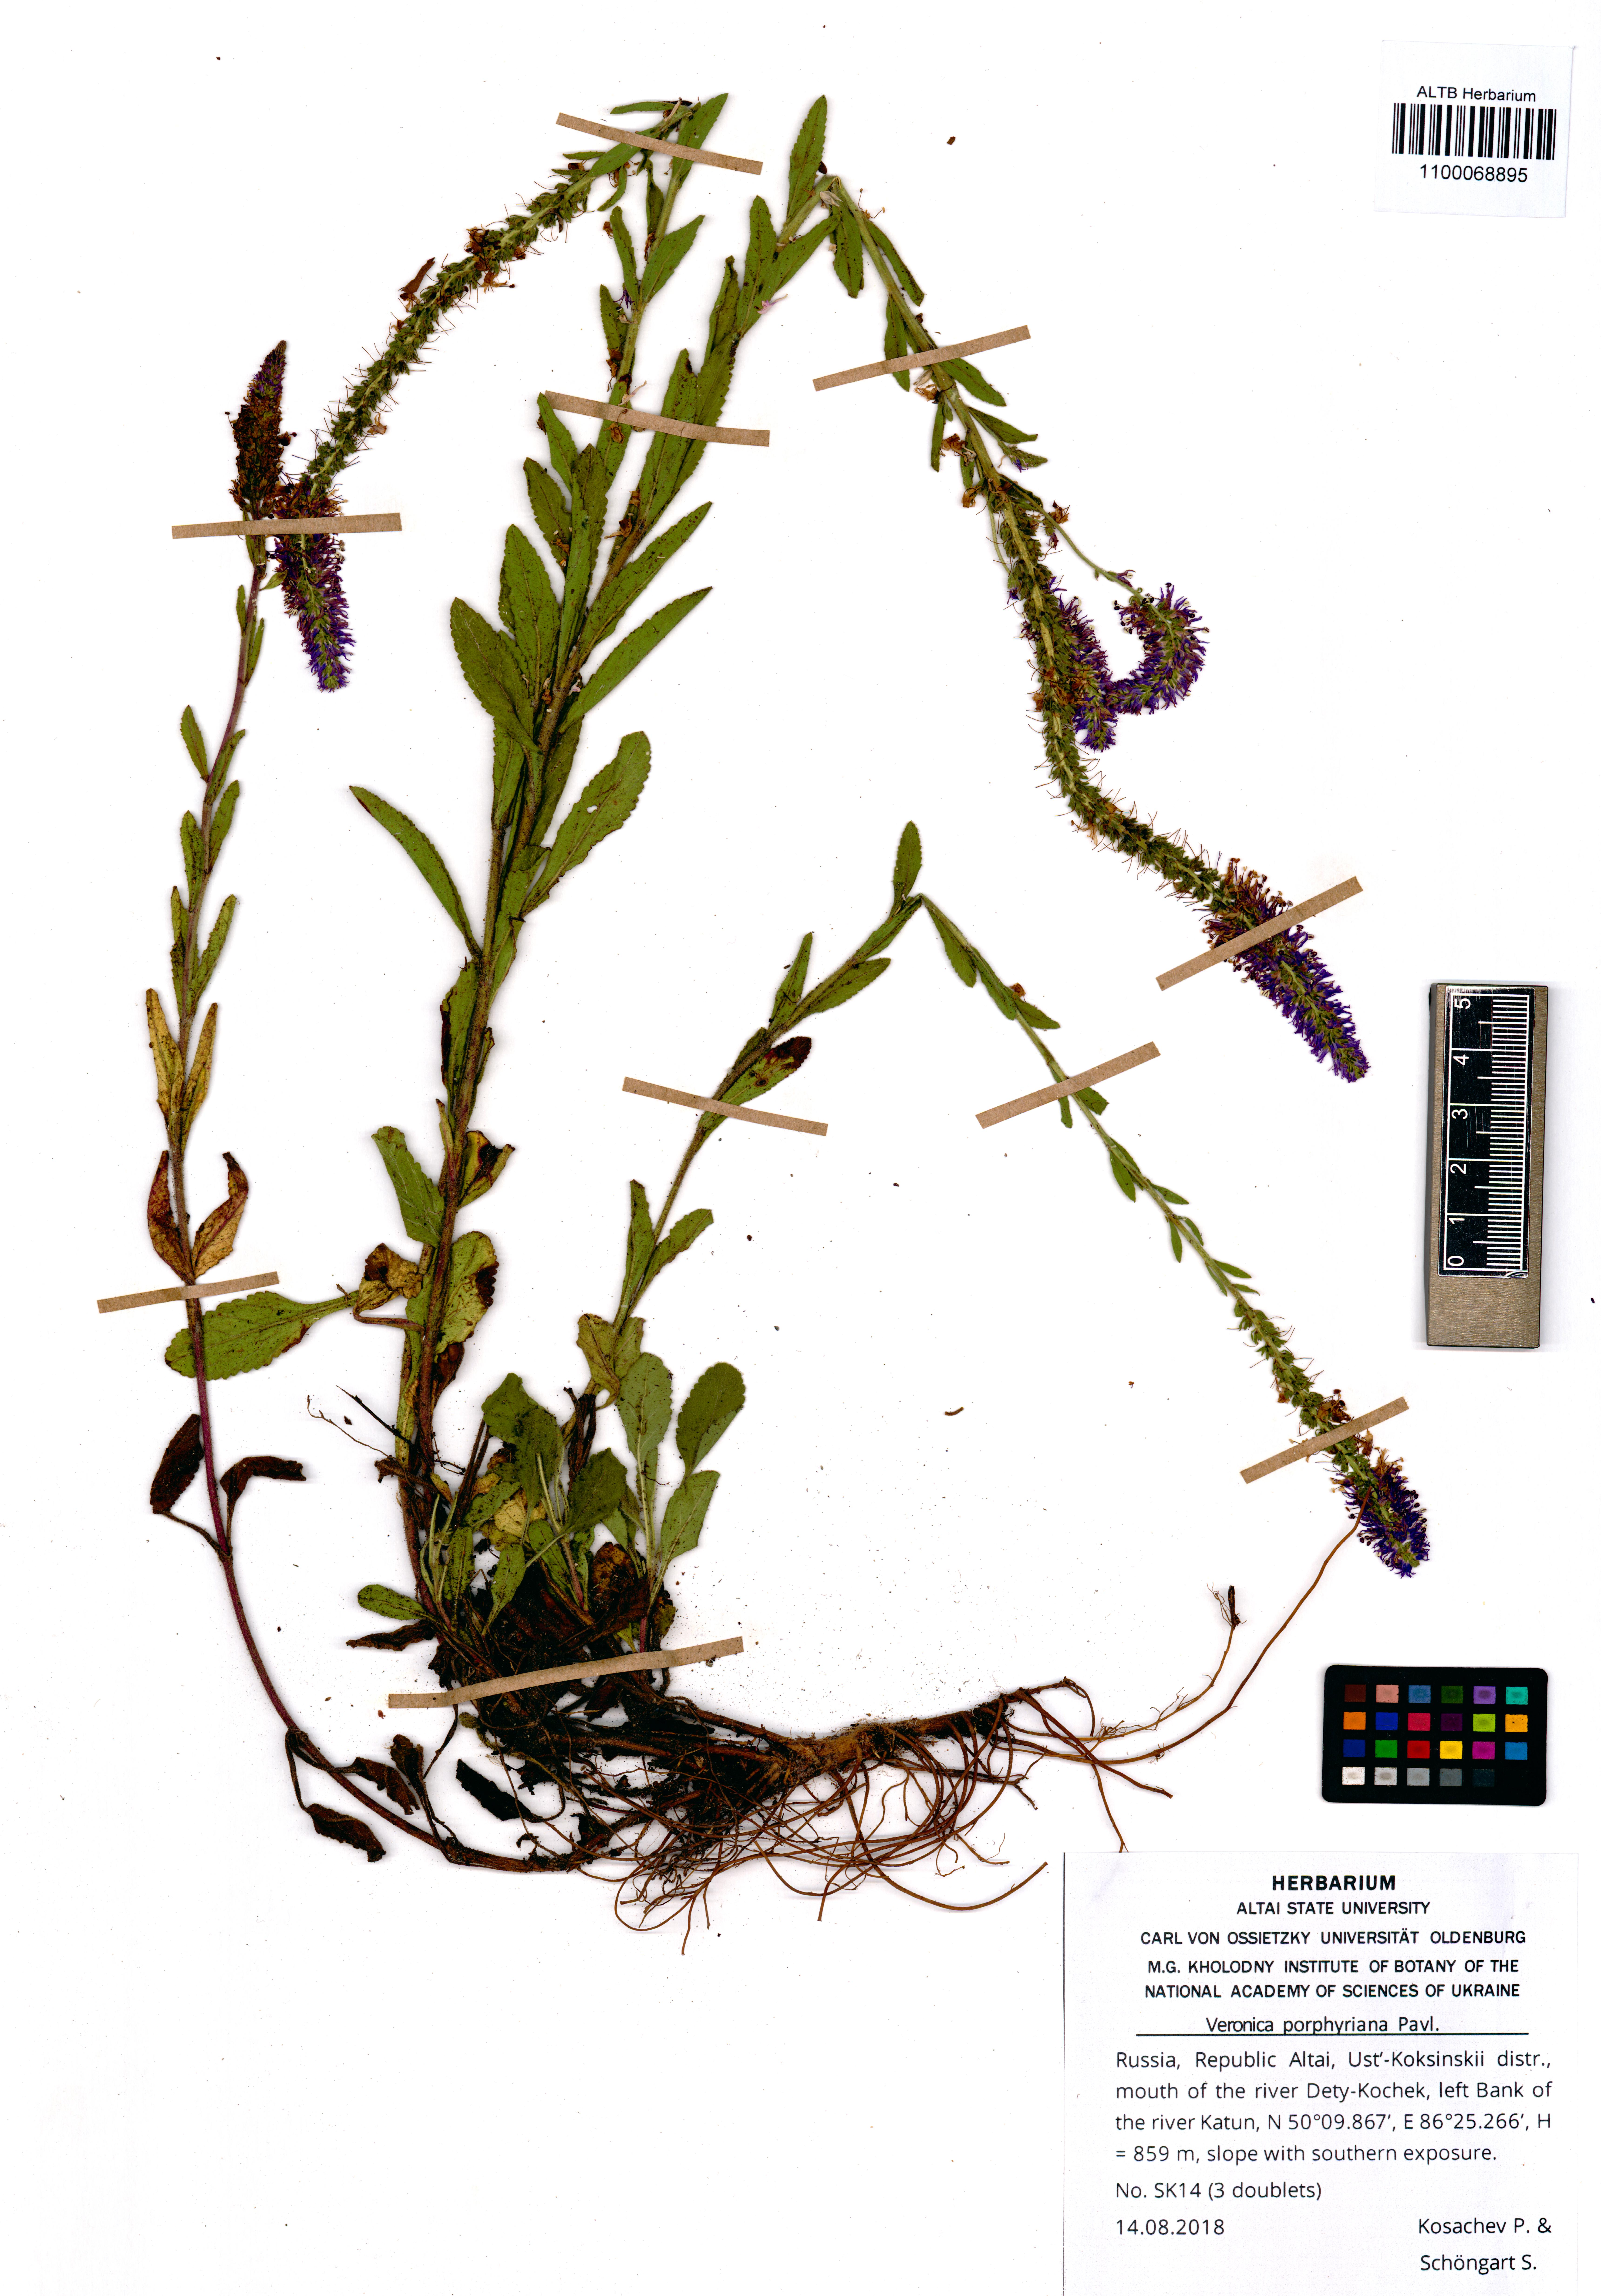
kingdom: Plantae
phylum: Tracheophyta
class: Magnoliopsida
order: Lamiales
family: Plantaginaceae
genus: Veronica
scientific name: Veronica porphyriana
